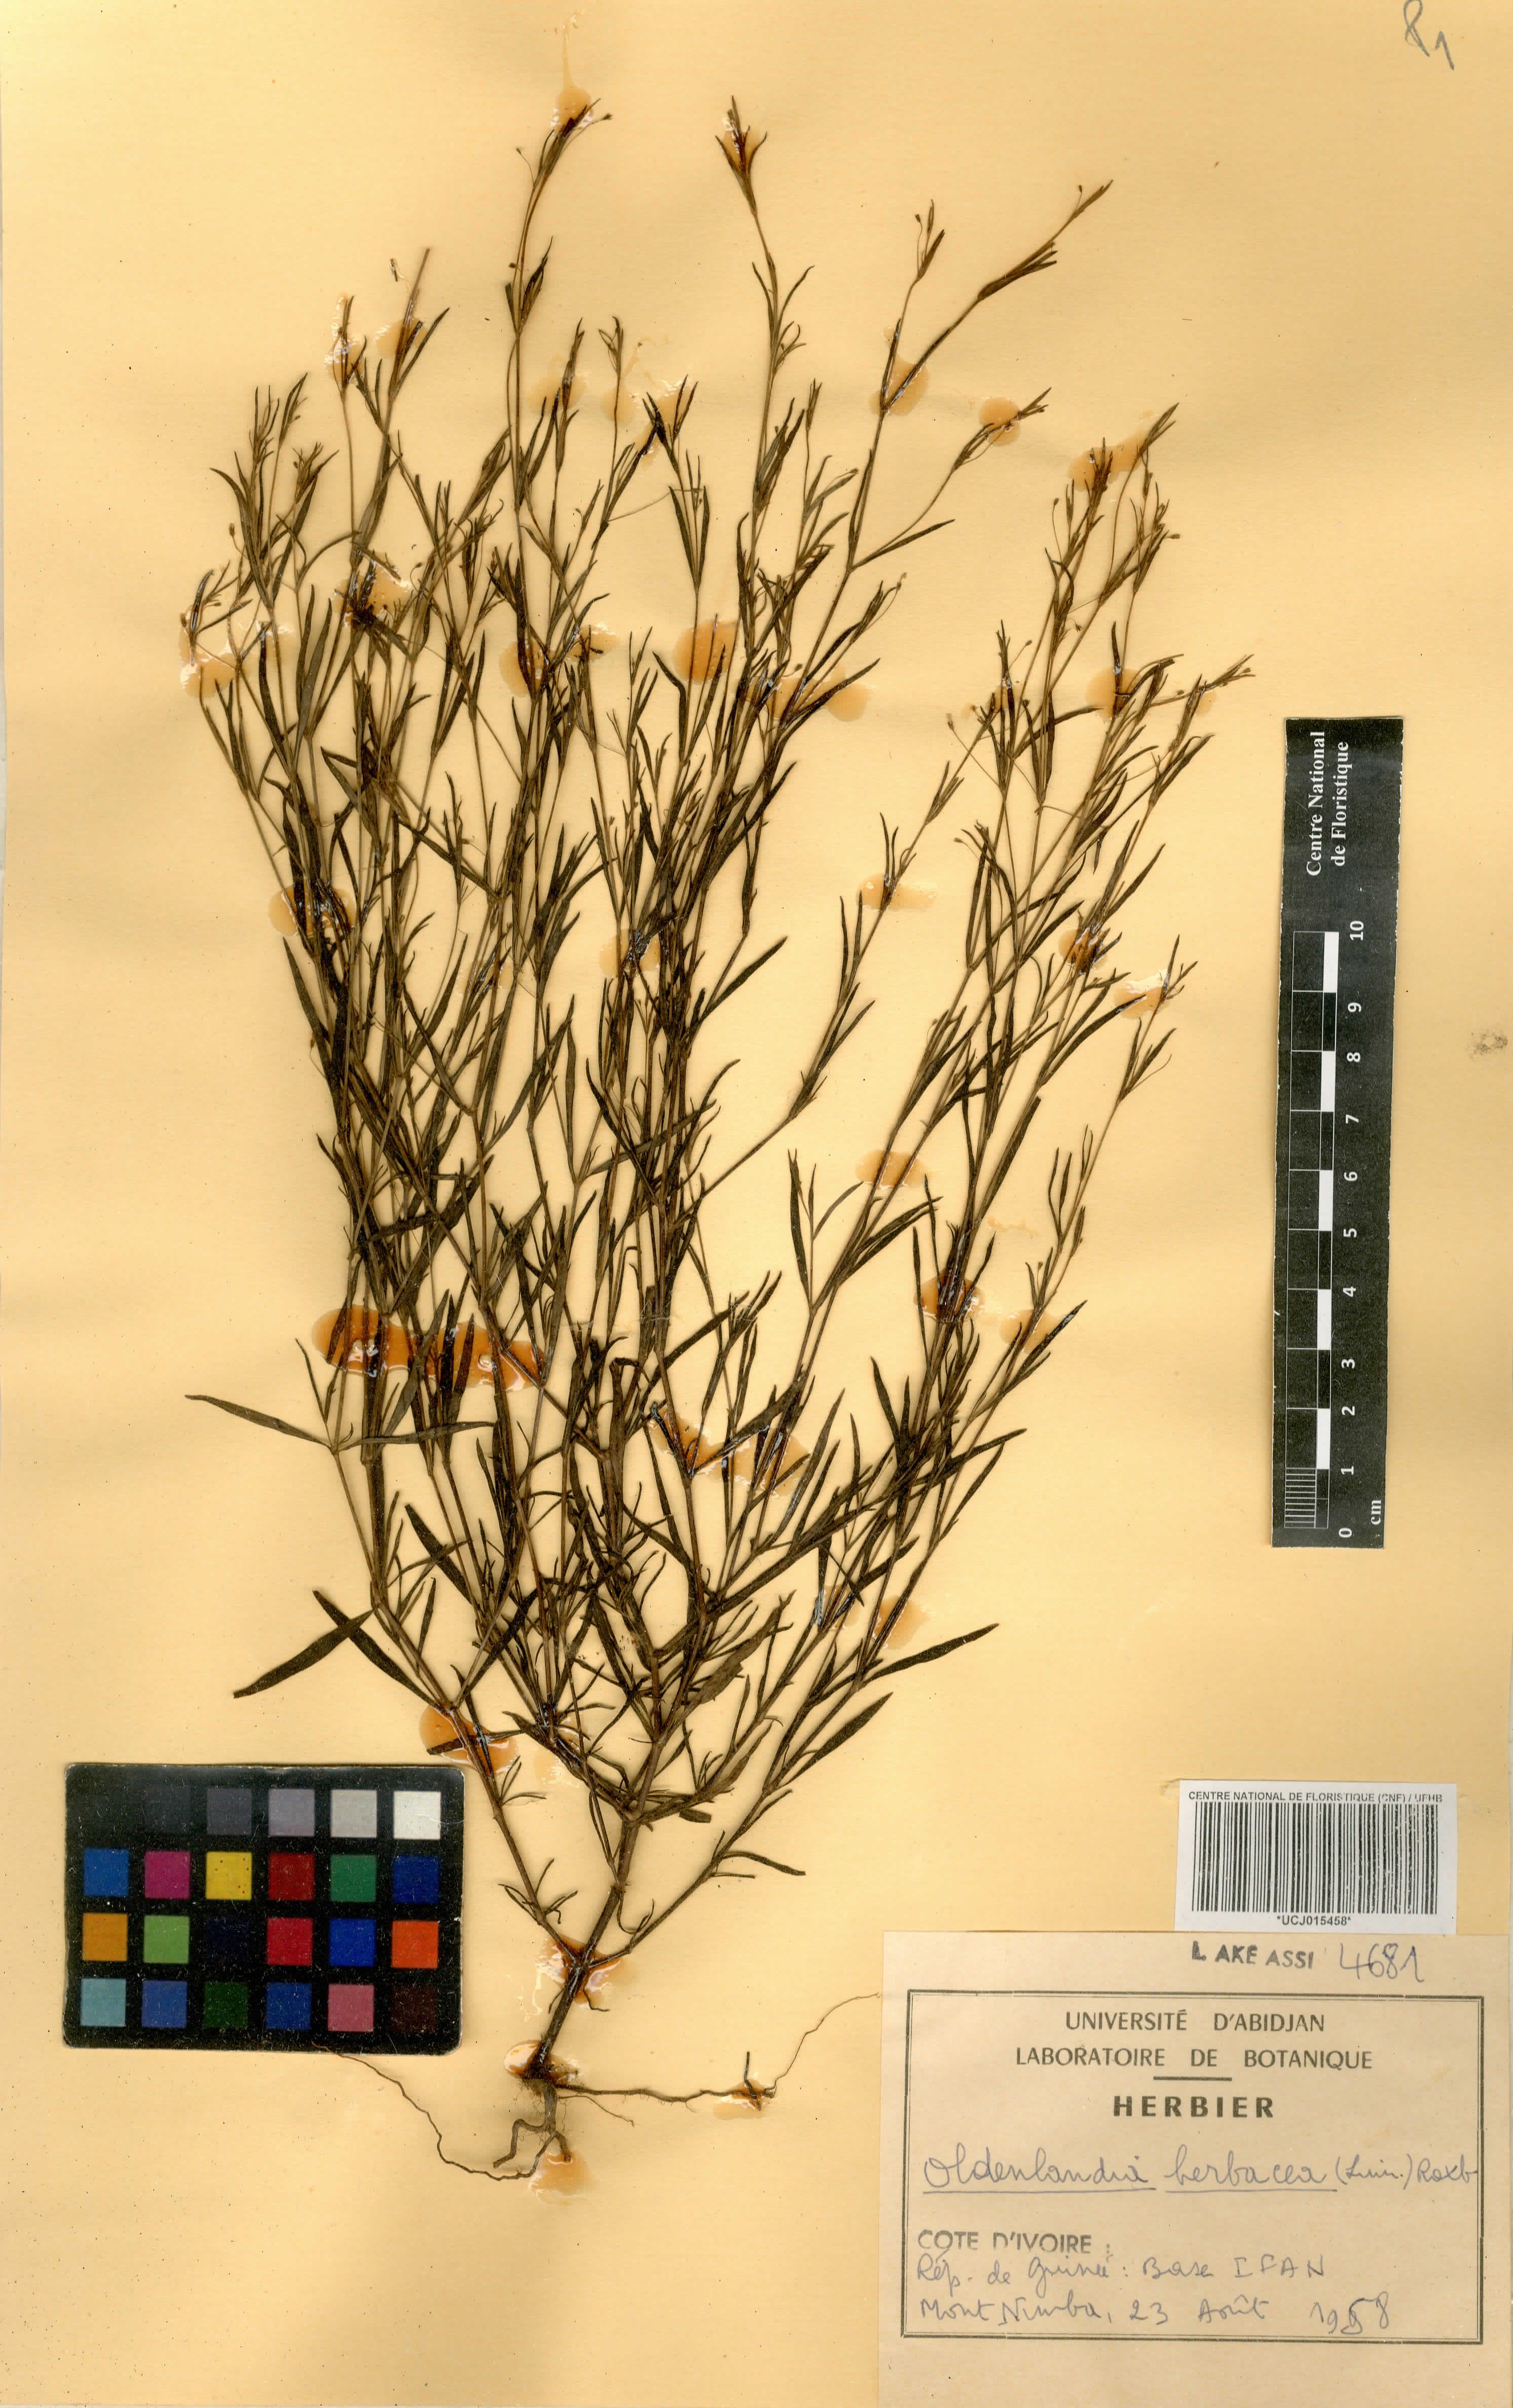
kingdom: Plantae
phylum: Tracheophyta
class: Magnoliopsida
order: Gentianales
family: Rubiaceae
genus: Oldenlandia
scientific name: Oldenlandia herbacea
